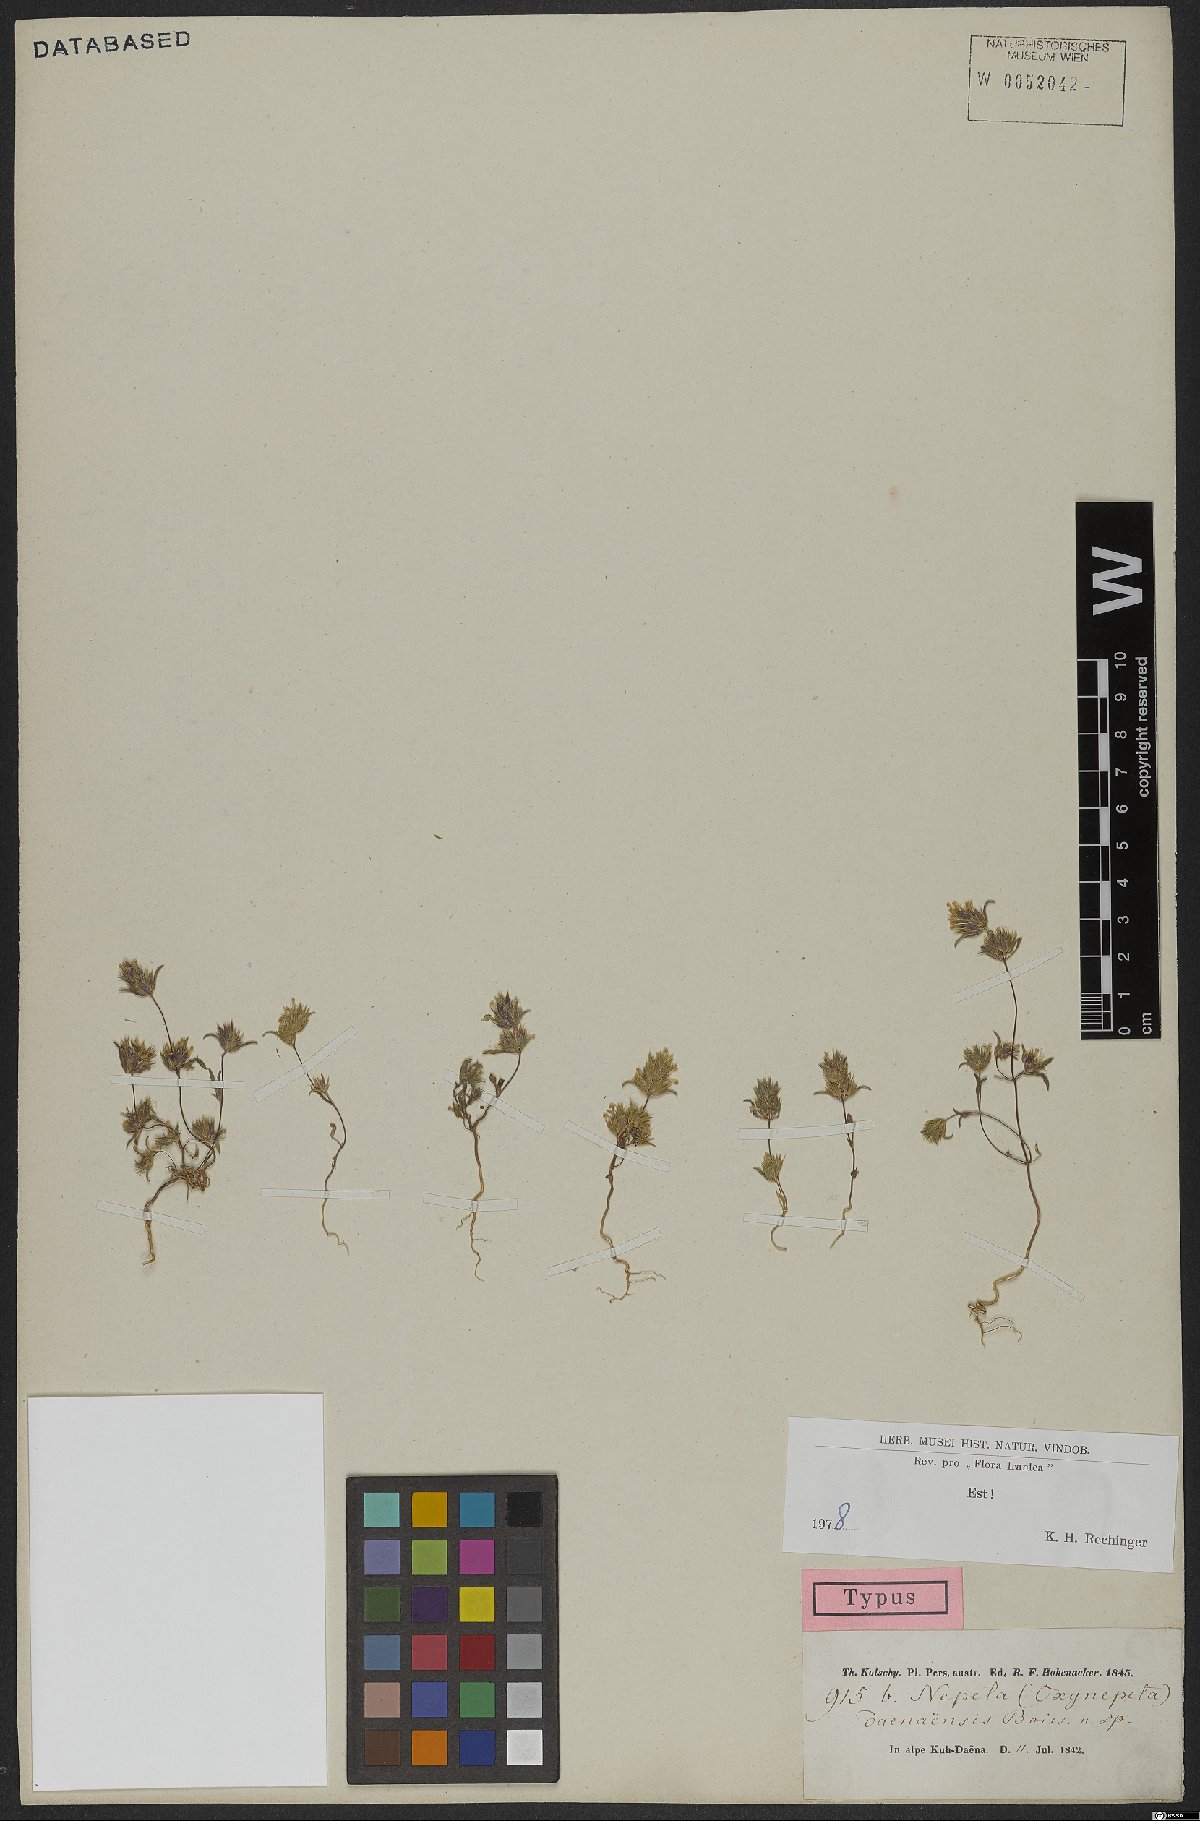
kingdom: Plantae
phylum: Tracheophyta
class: Magnoliopsida
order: Lamiales
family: Lamiaceae
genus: Nepeta
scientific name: Nepeta daenensis
